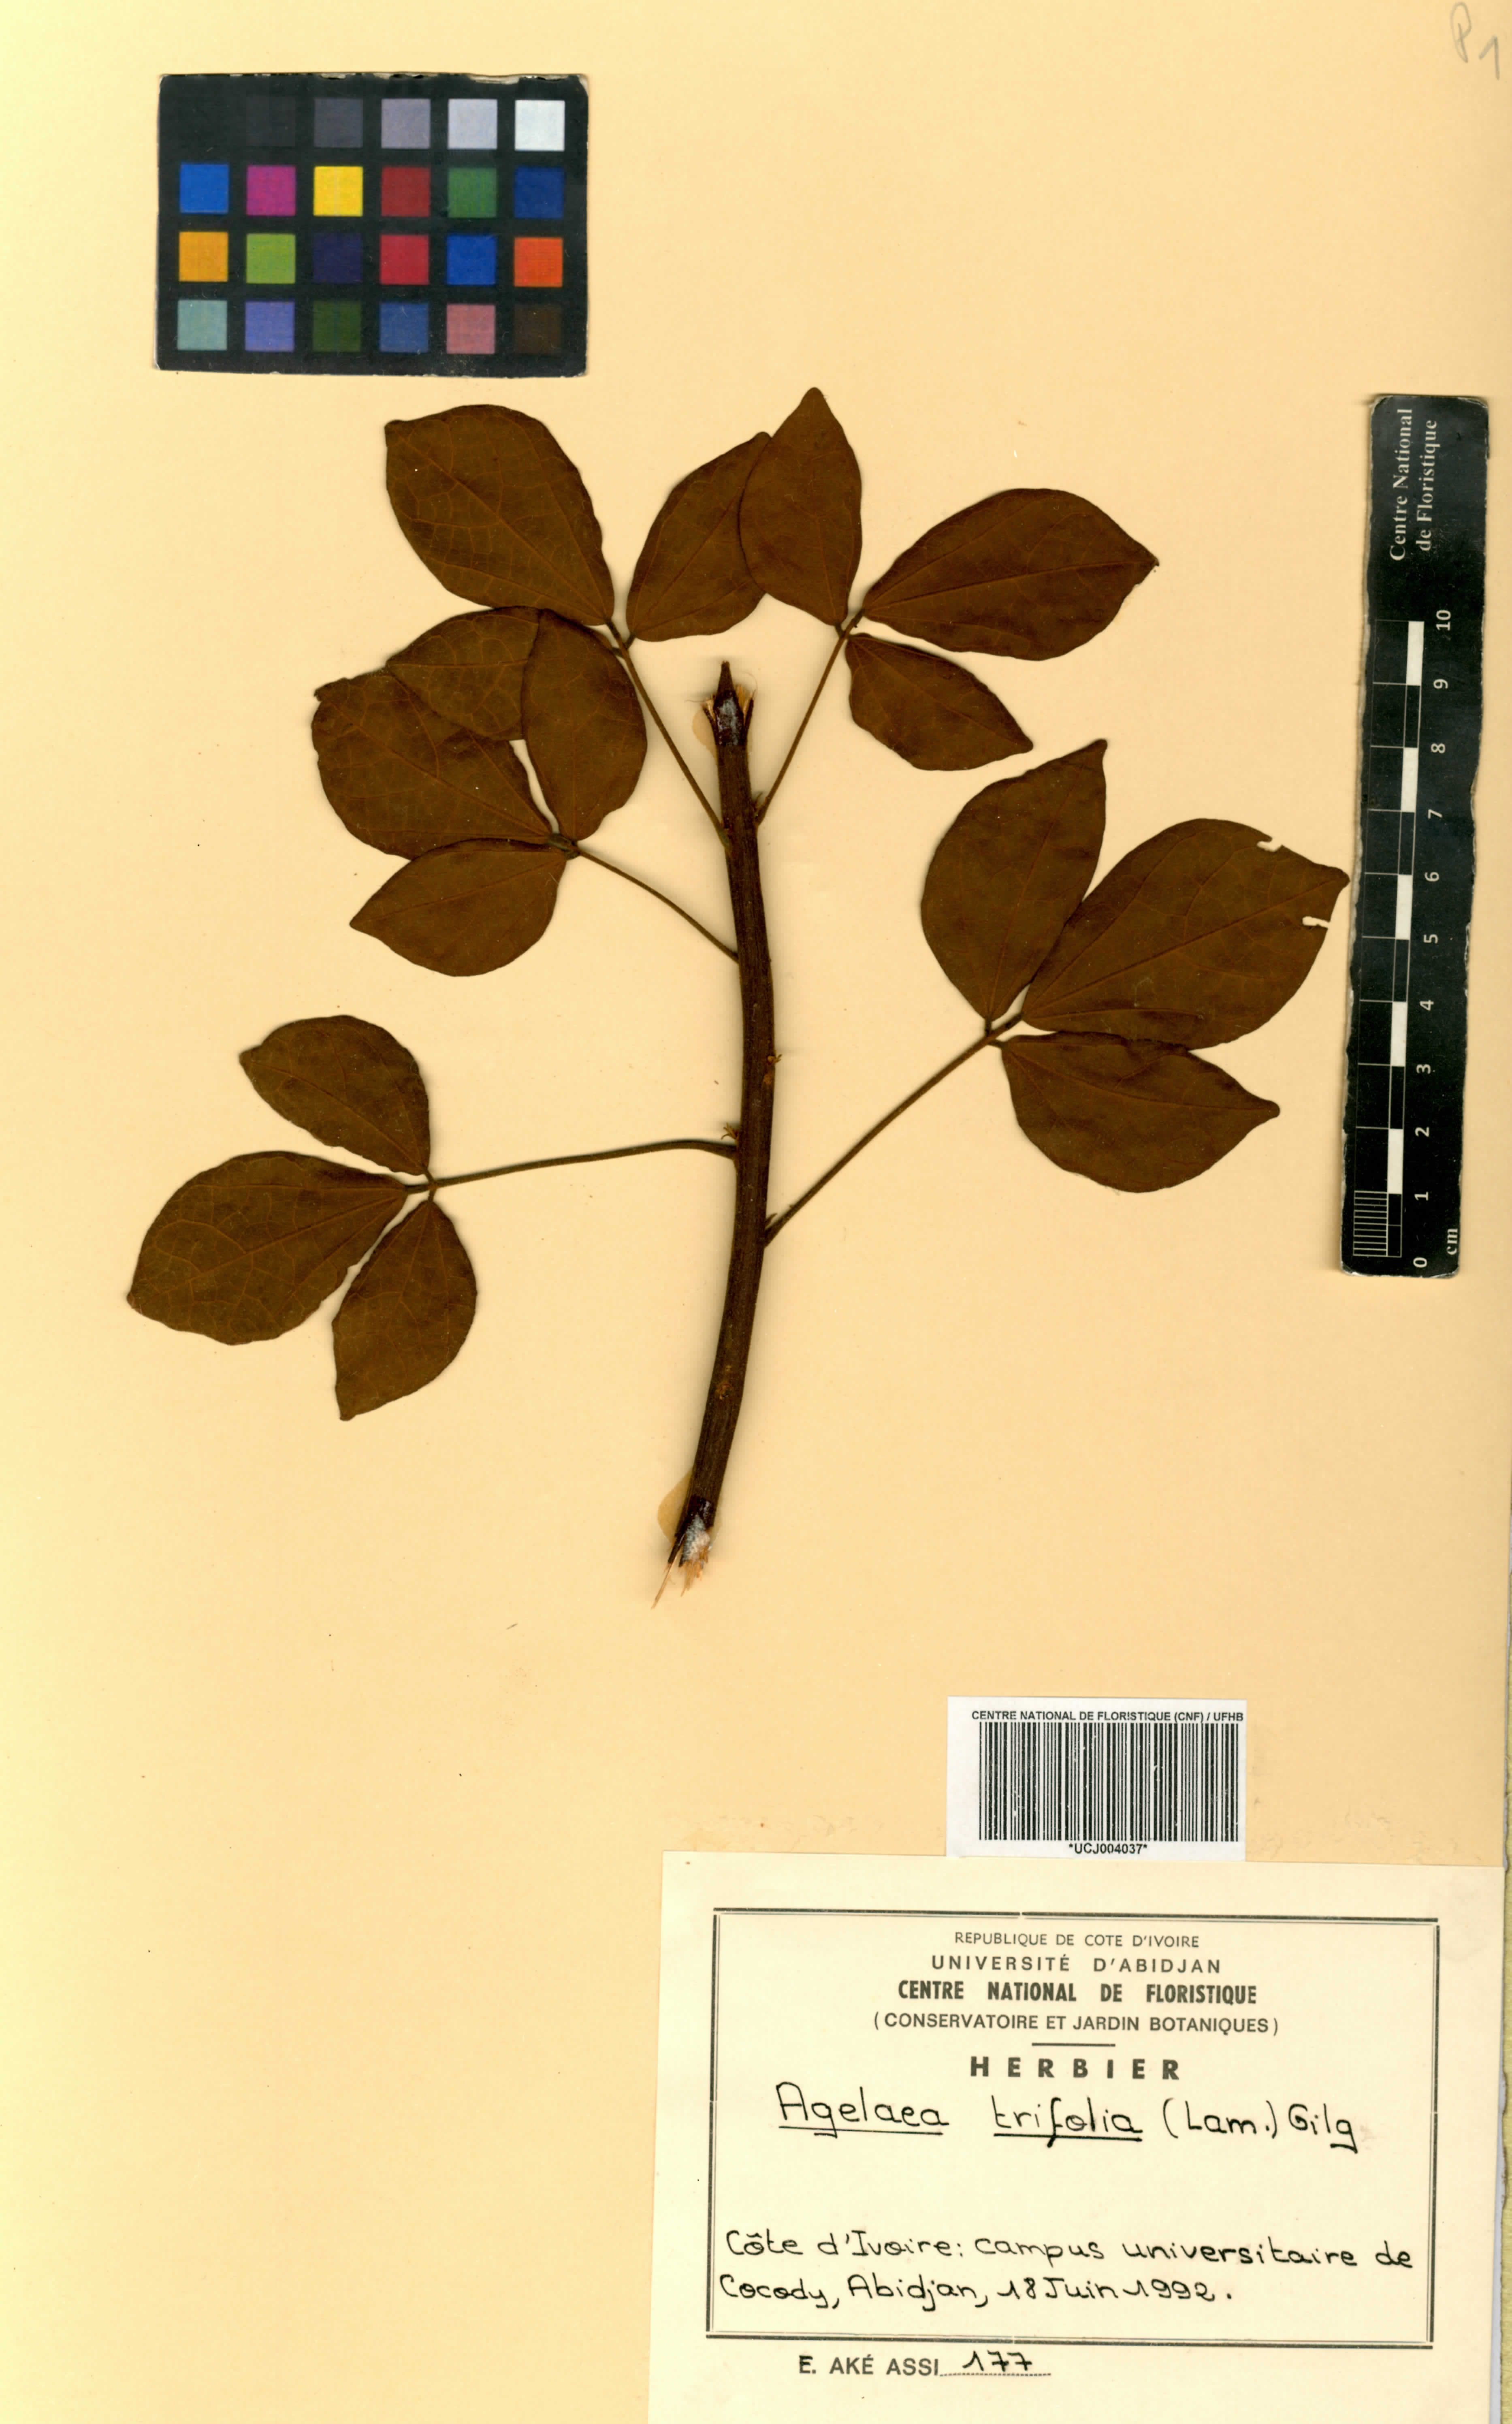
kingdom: Plantae
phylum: Tracheophyta
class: Magnoliopsida
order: Oxalidales
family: Connaraceae
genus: Agelaea
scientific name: Agelaea pentagyna
